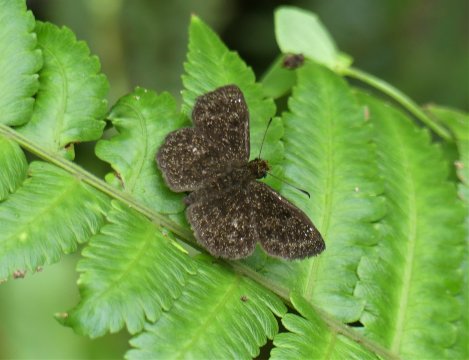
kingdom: Animalia
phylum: Arthropoda
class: Insecta
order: Lepidoptera
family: Hesperiidae
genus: Staphylus
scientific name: Staphylus oeta
